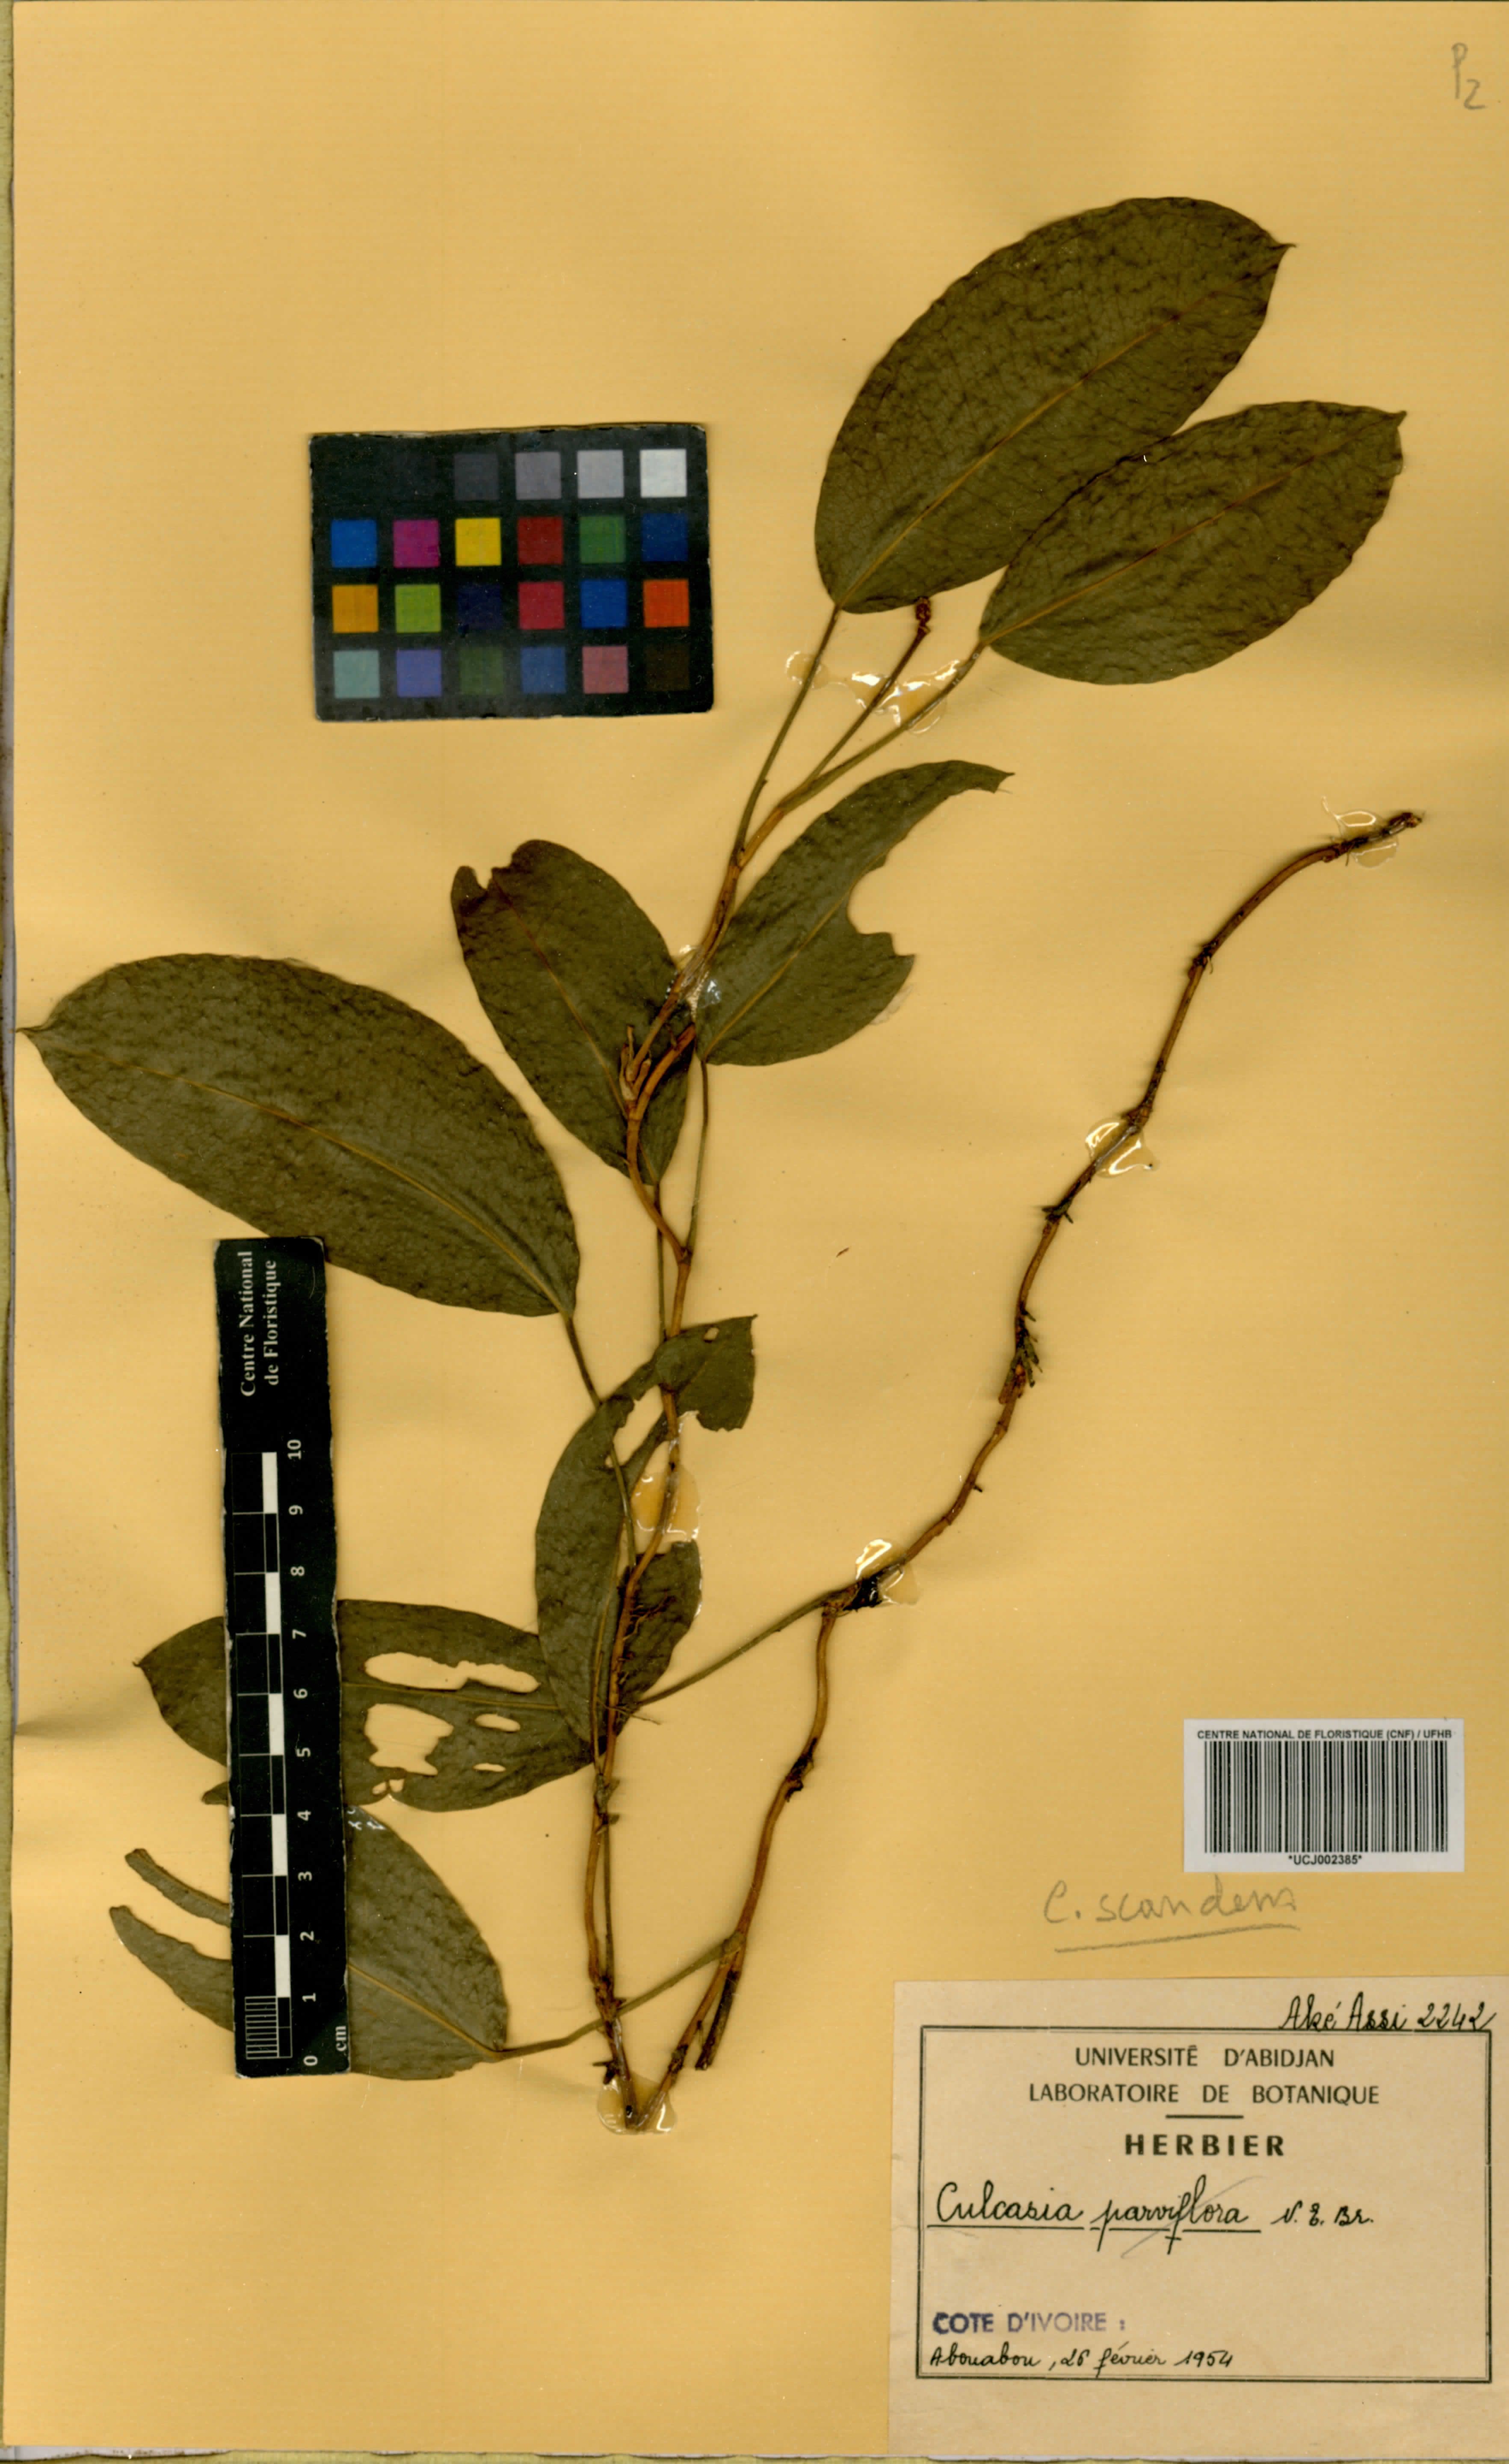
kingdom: Plantae
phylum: Tracheophyta
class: Liliopsida
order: Alismatales
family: Araceae
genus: Culcasia
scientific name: Culcasia scandens
